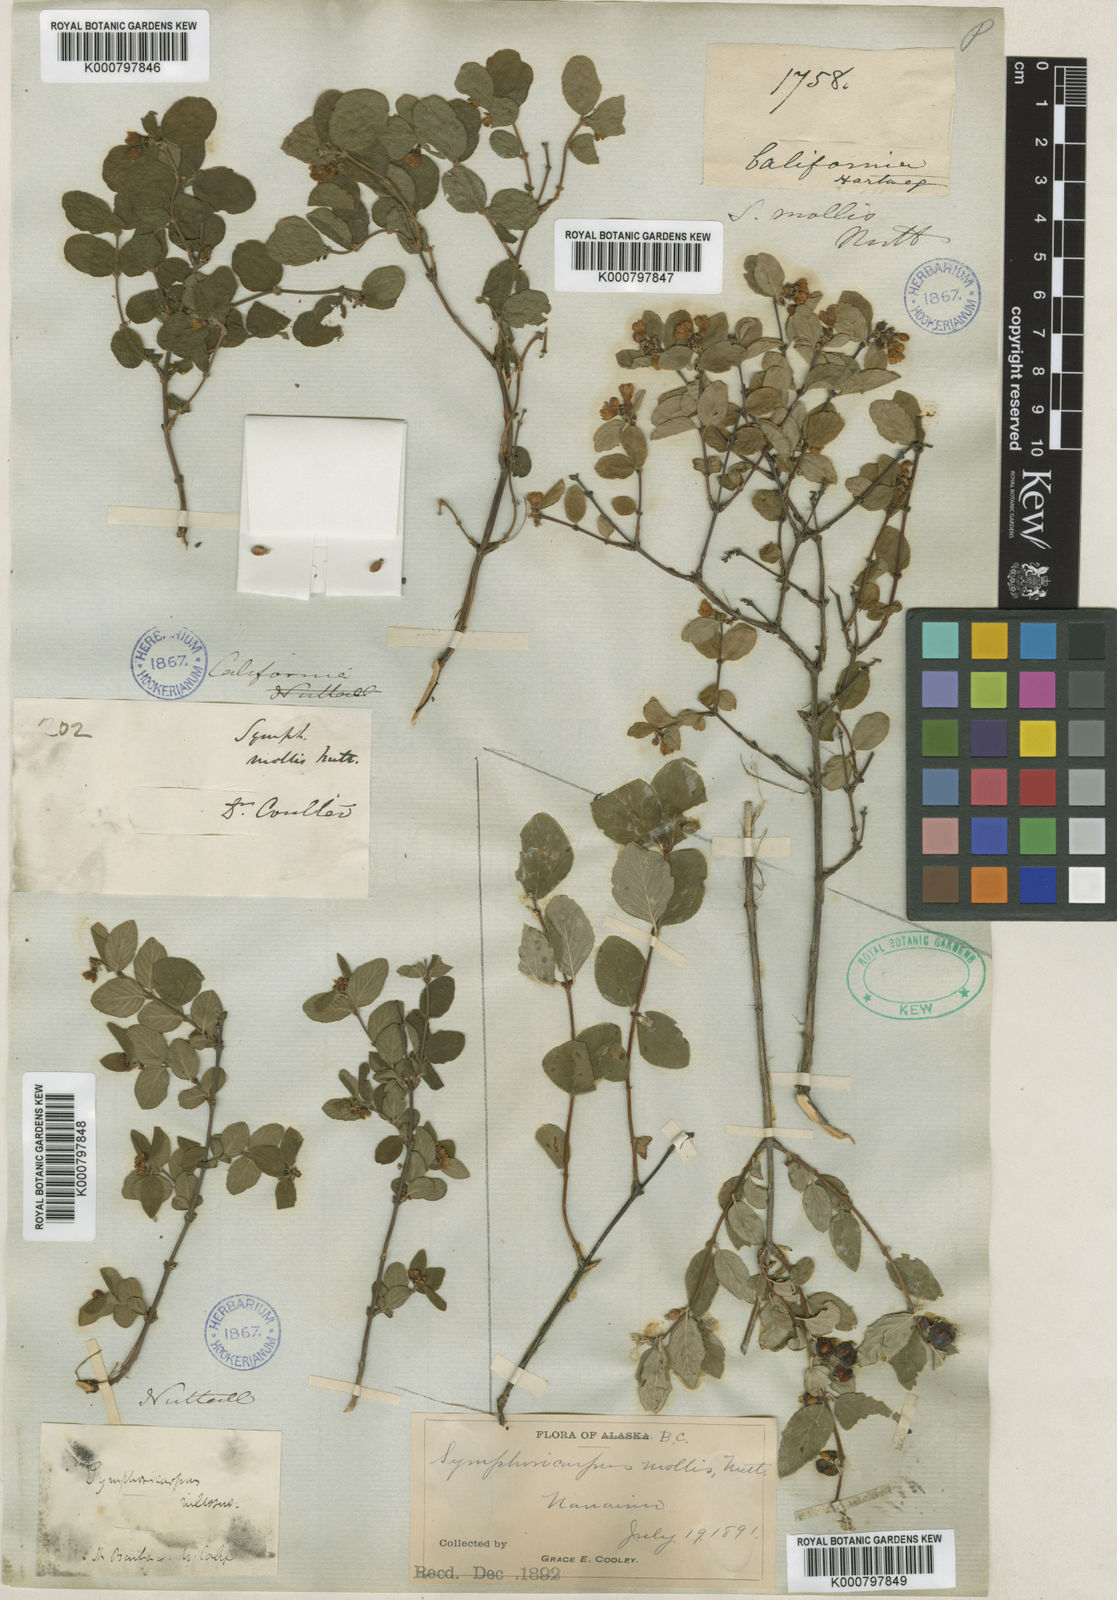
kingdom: Plantae
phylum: Tracheophyta
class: Magnoliopsida
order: Dipsacales
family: Caprifoliaceae
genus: Symphoricarpos
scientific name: Symphoricarpos mollis
